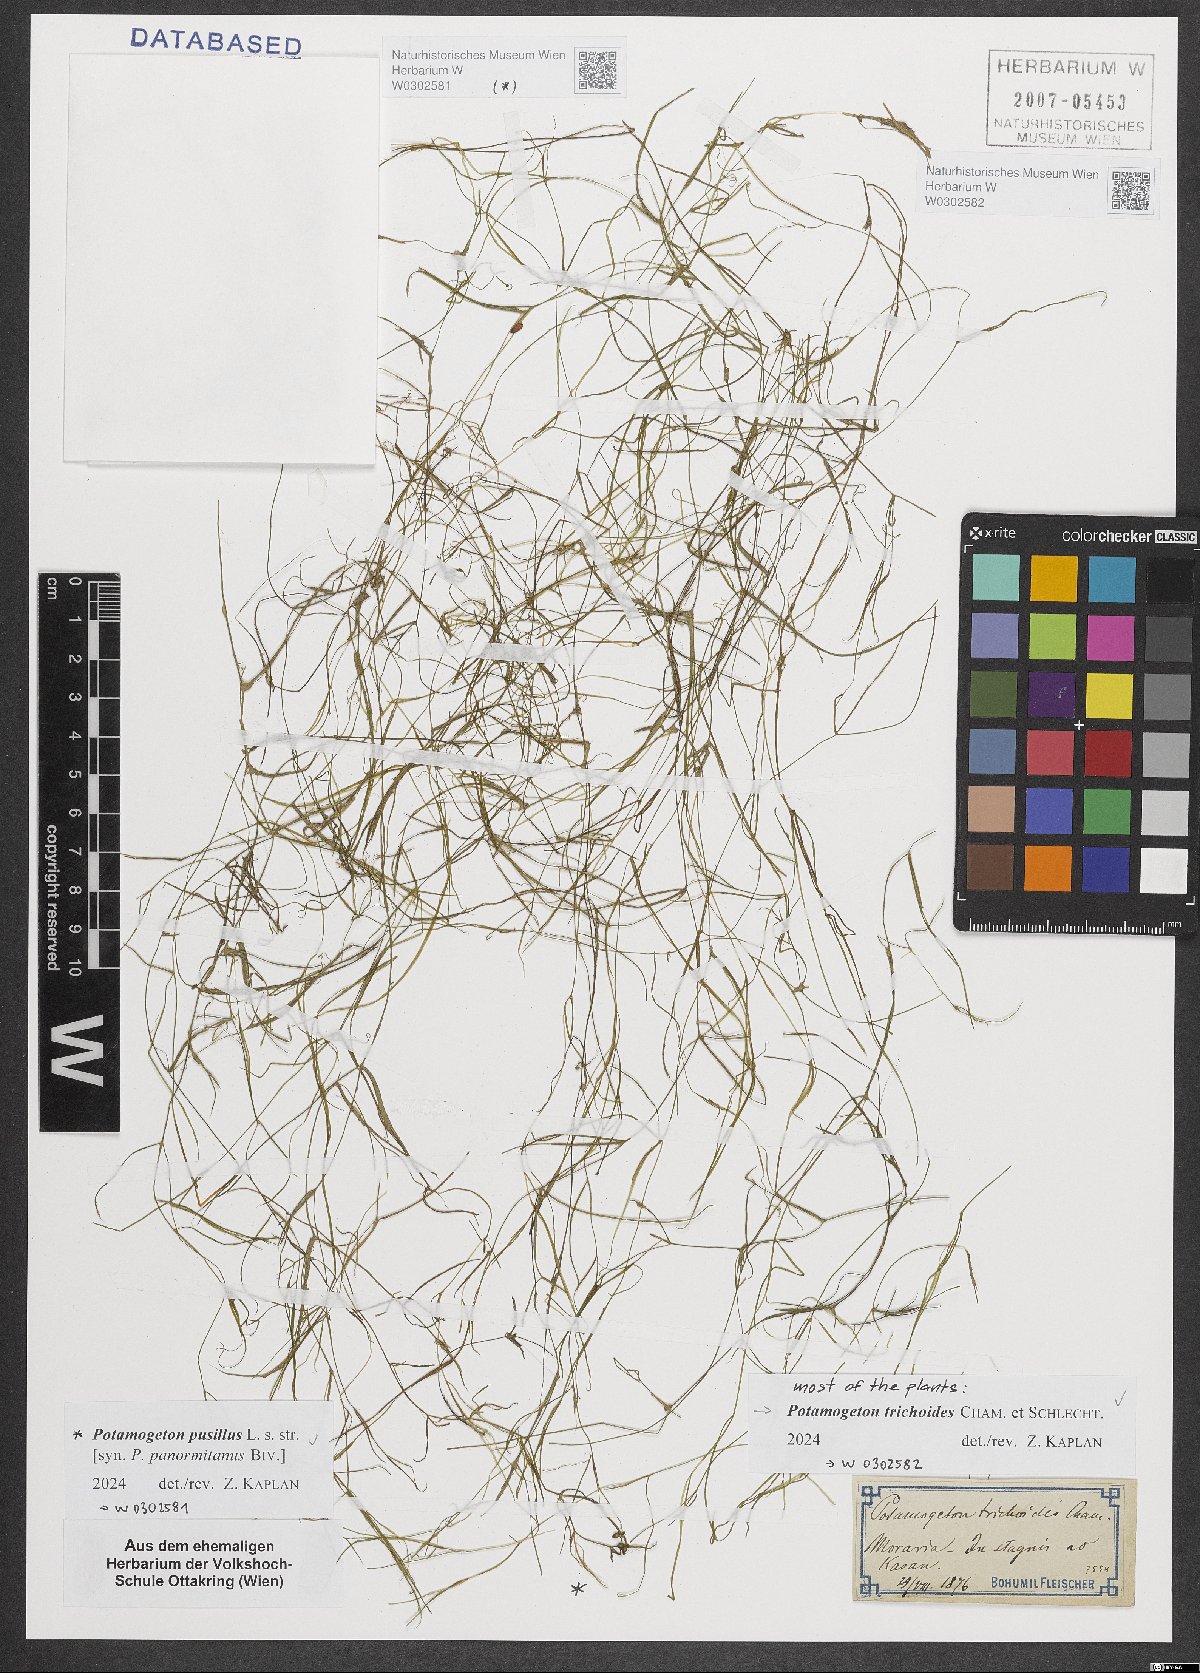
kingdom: Plantae
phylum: Tracheophyta
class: Liliopsida
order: Alismatales
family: Potamogetonaceae
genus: Potamogeton
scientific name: Potamogeton pusillus
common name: Lesser pondweed
